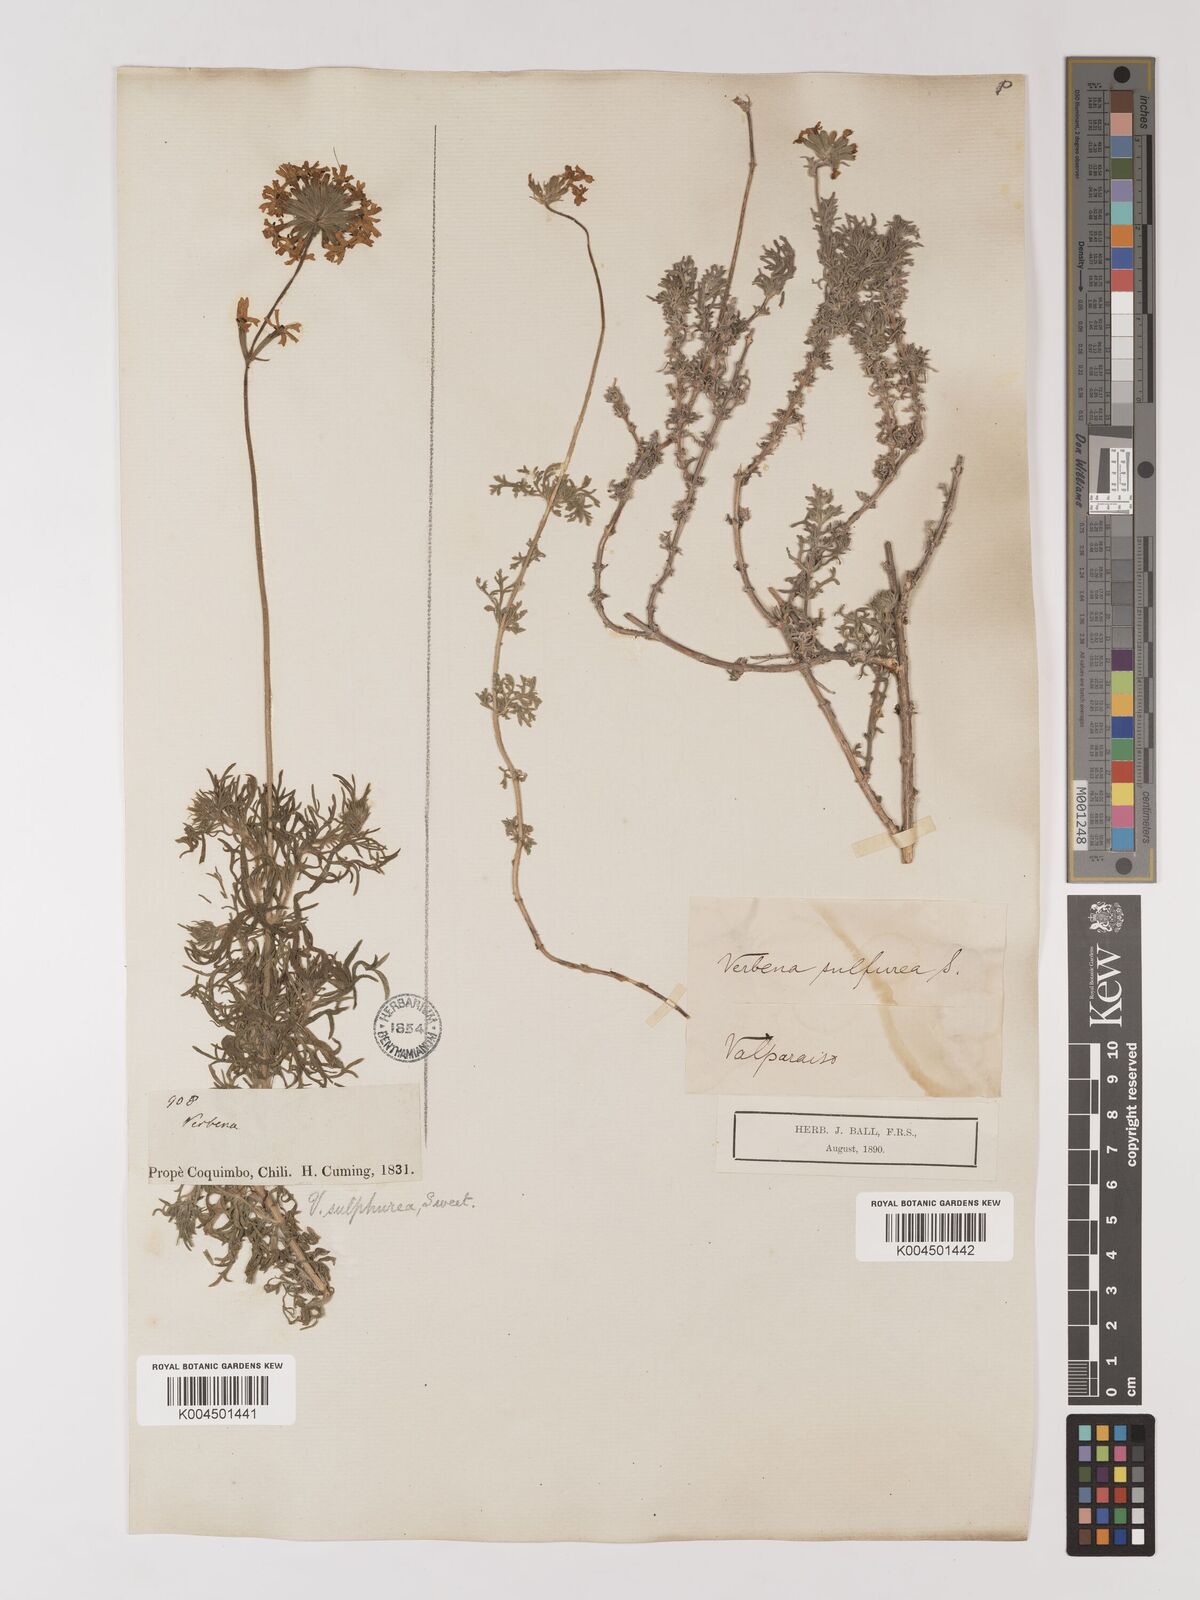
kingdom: Plantae
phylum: Tracheophyta
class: Magnoliopsida
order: Lamiales
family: Verbenaceae
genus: Verbena
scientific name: Verbena sulphurea
